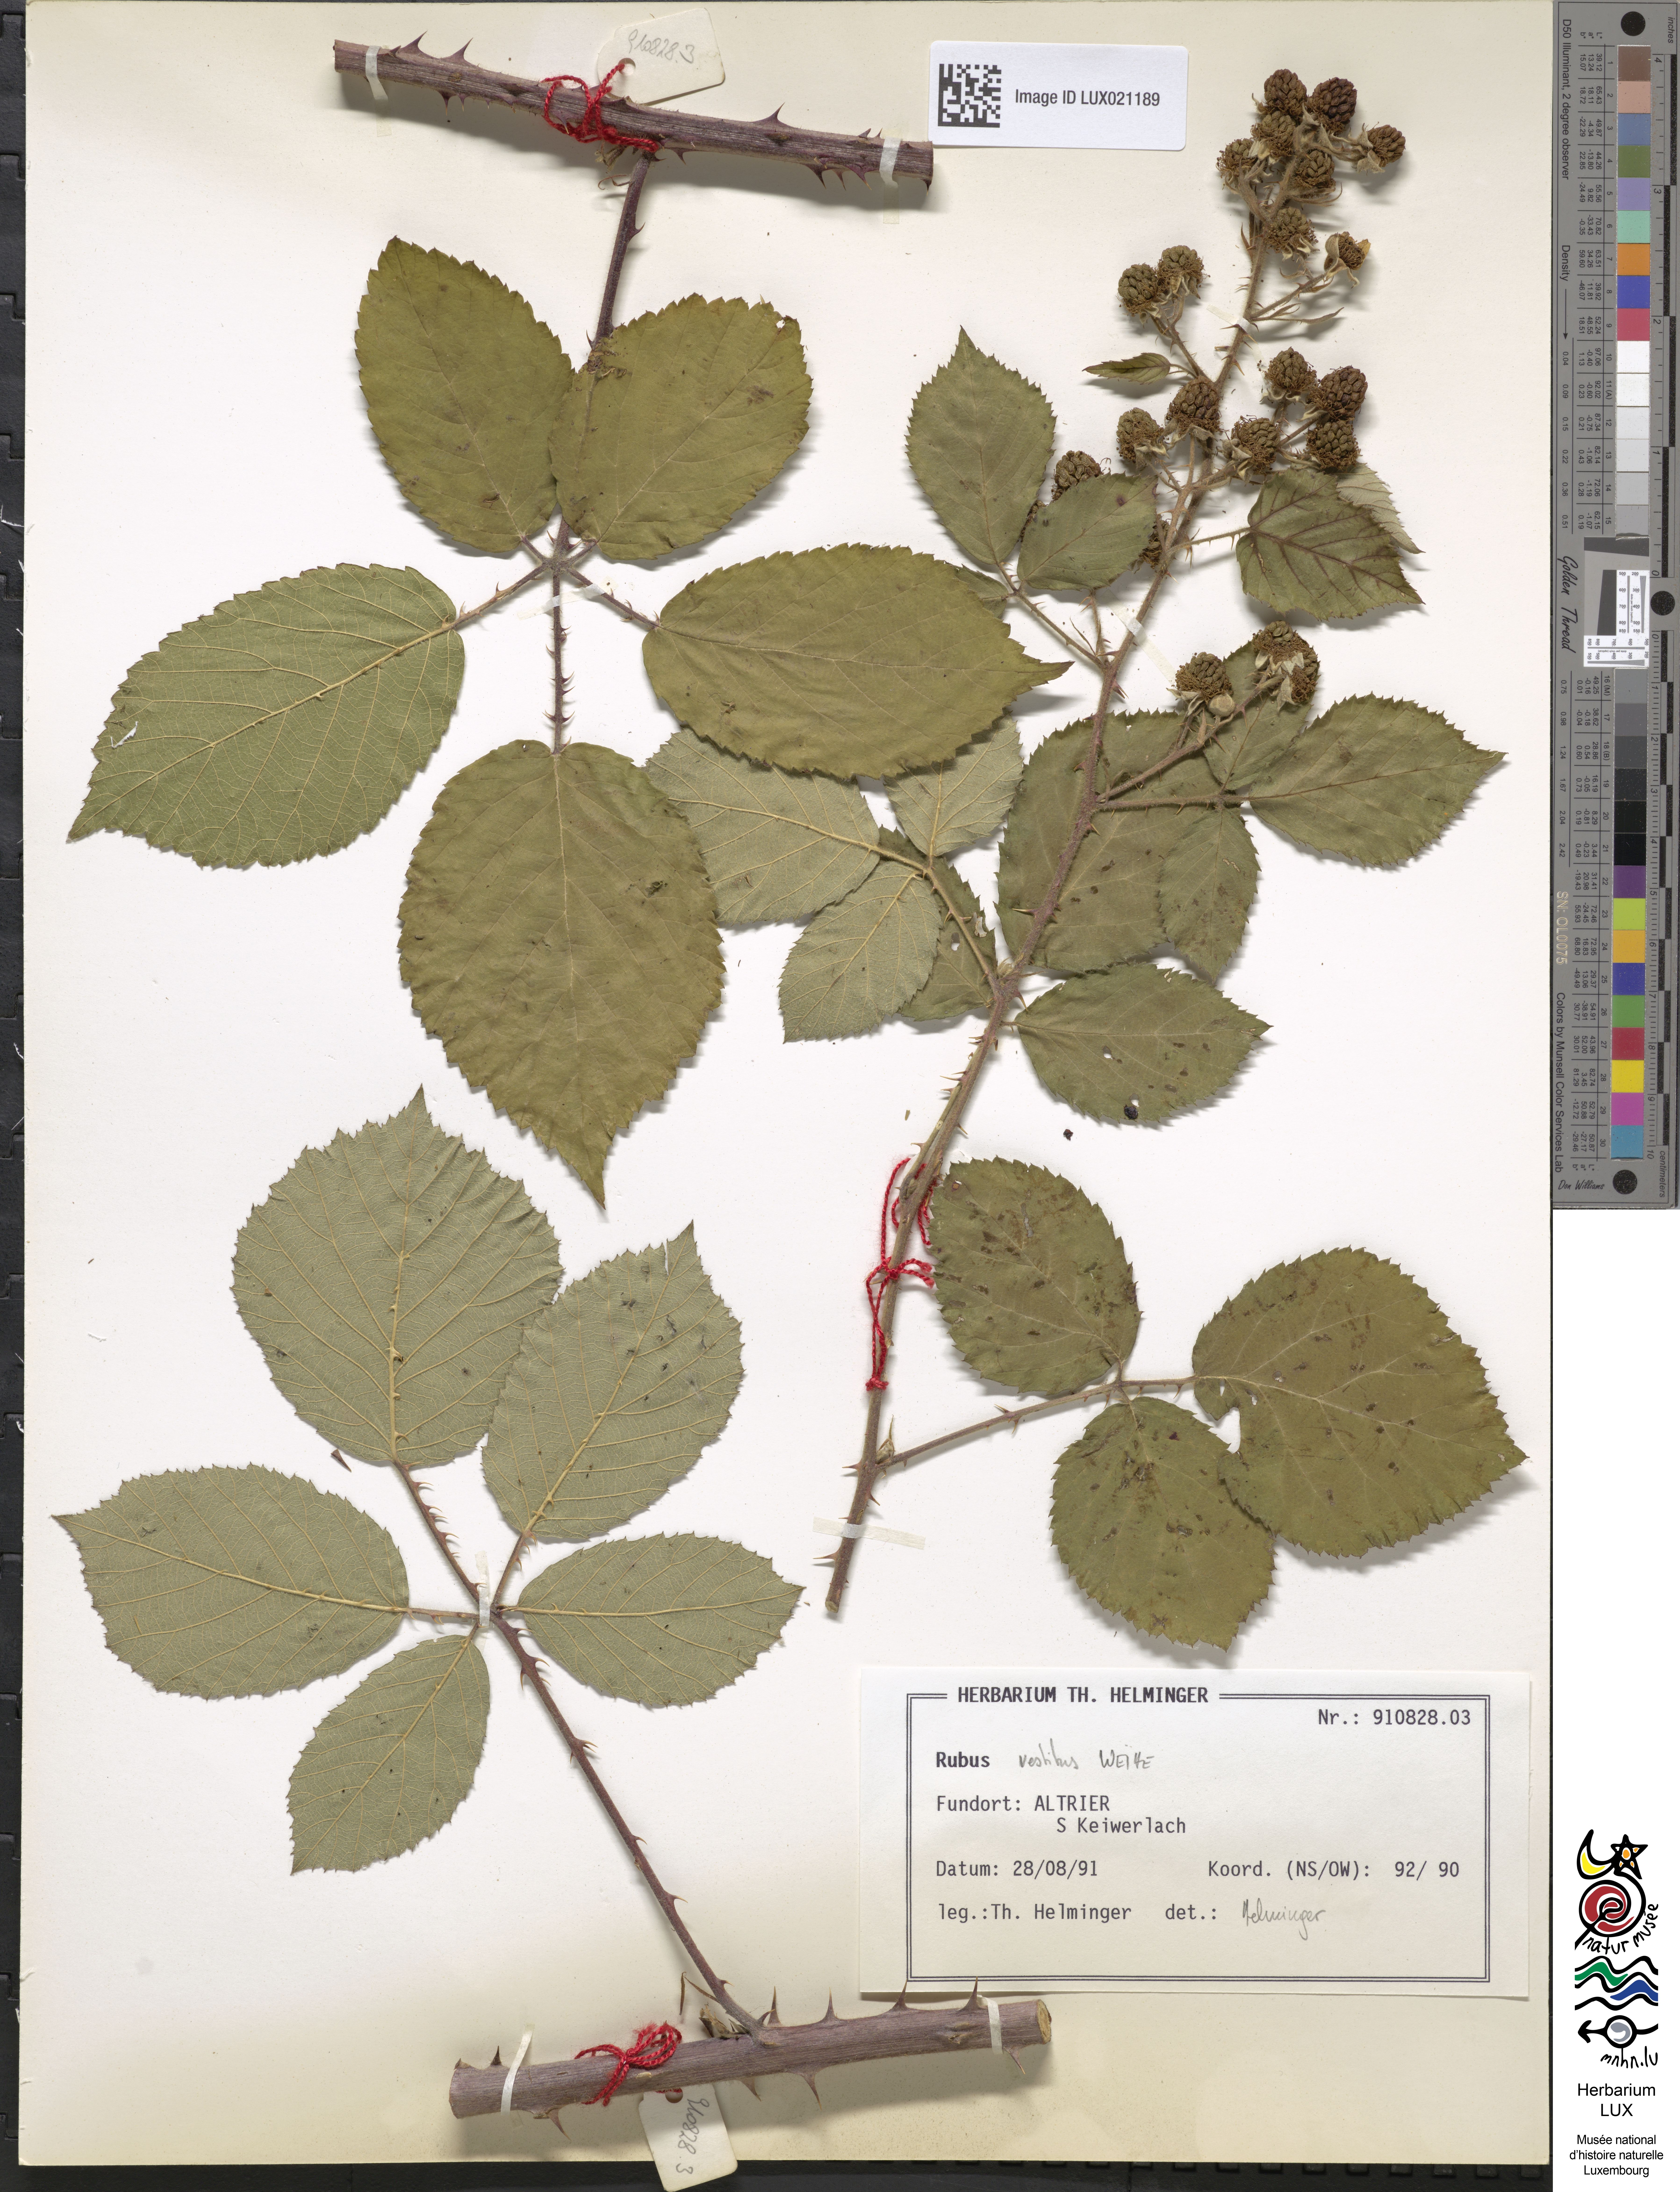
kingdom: Plantae
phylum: Tracheophyta
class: Magnoliopsida
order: Rosales
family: Rosaceae
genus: Rubus
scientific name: Rubus vestitus
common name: European blackberry
